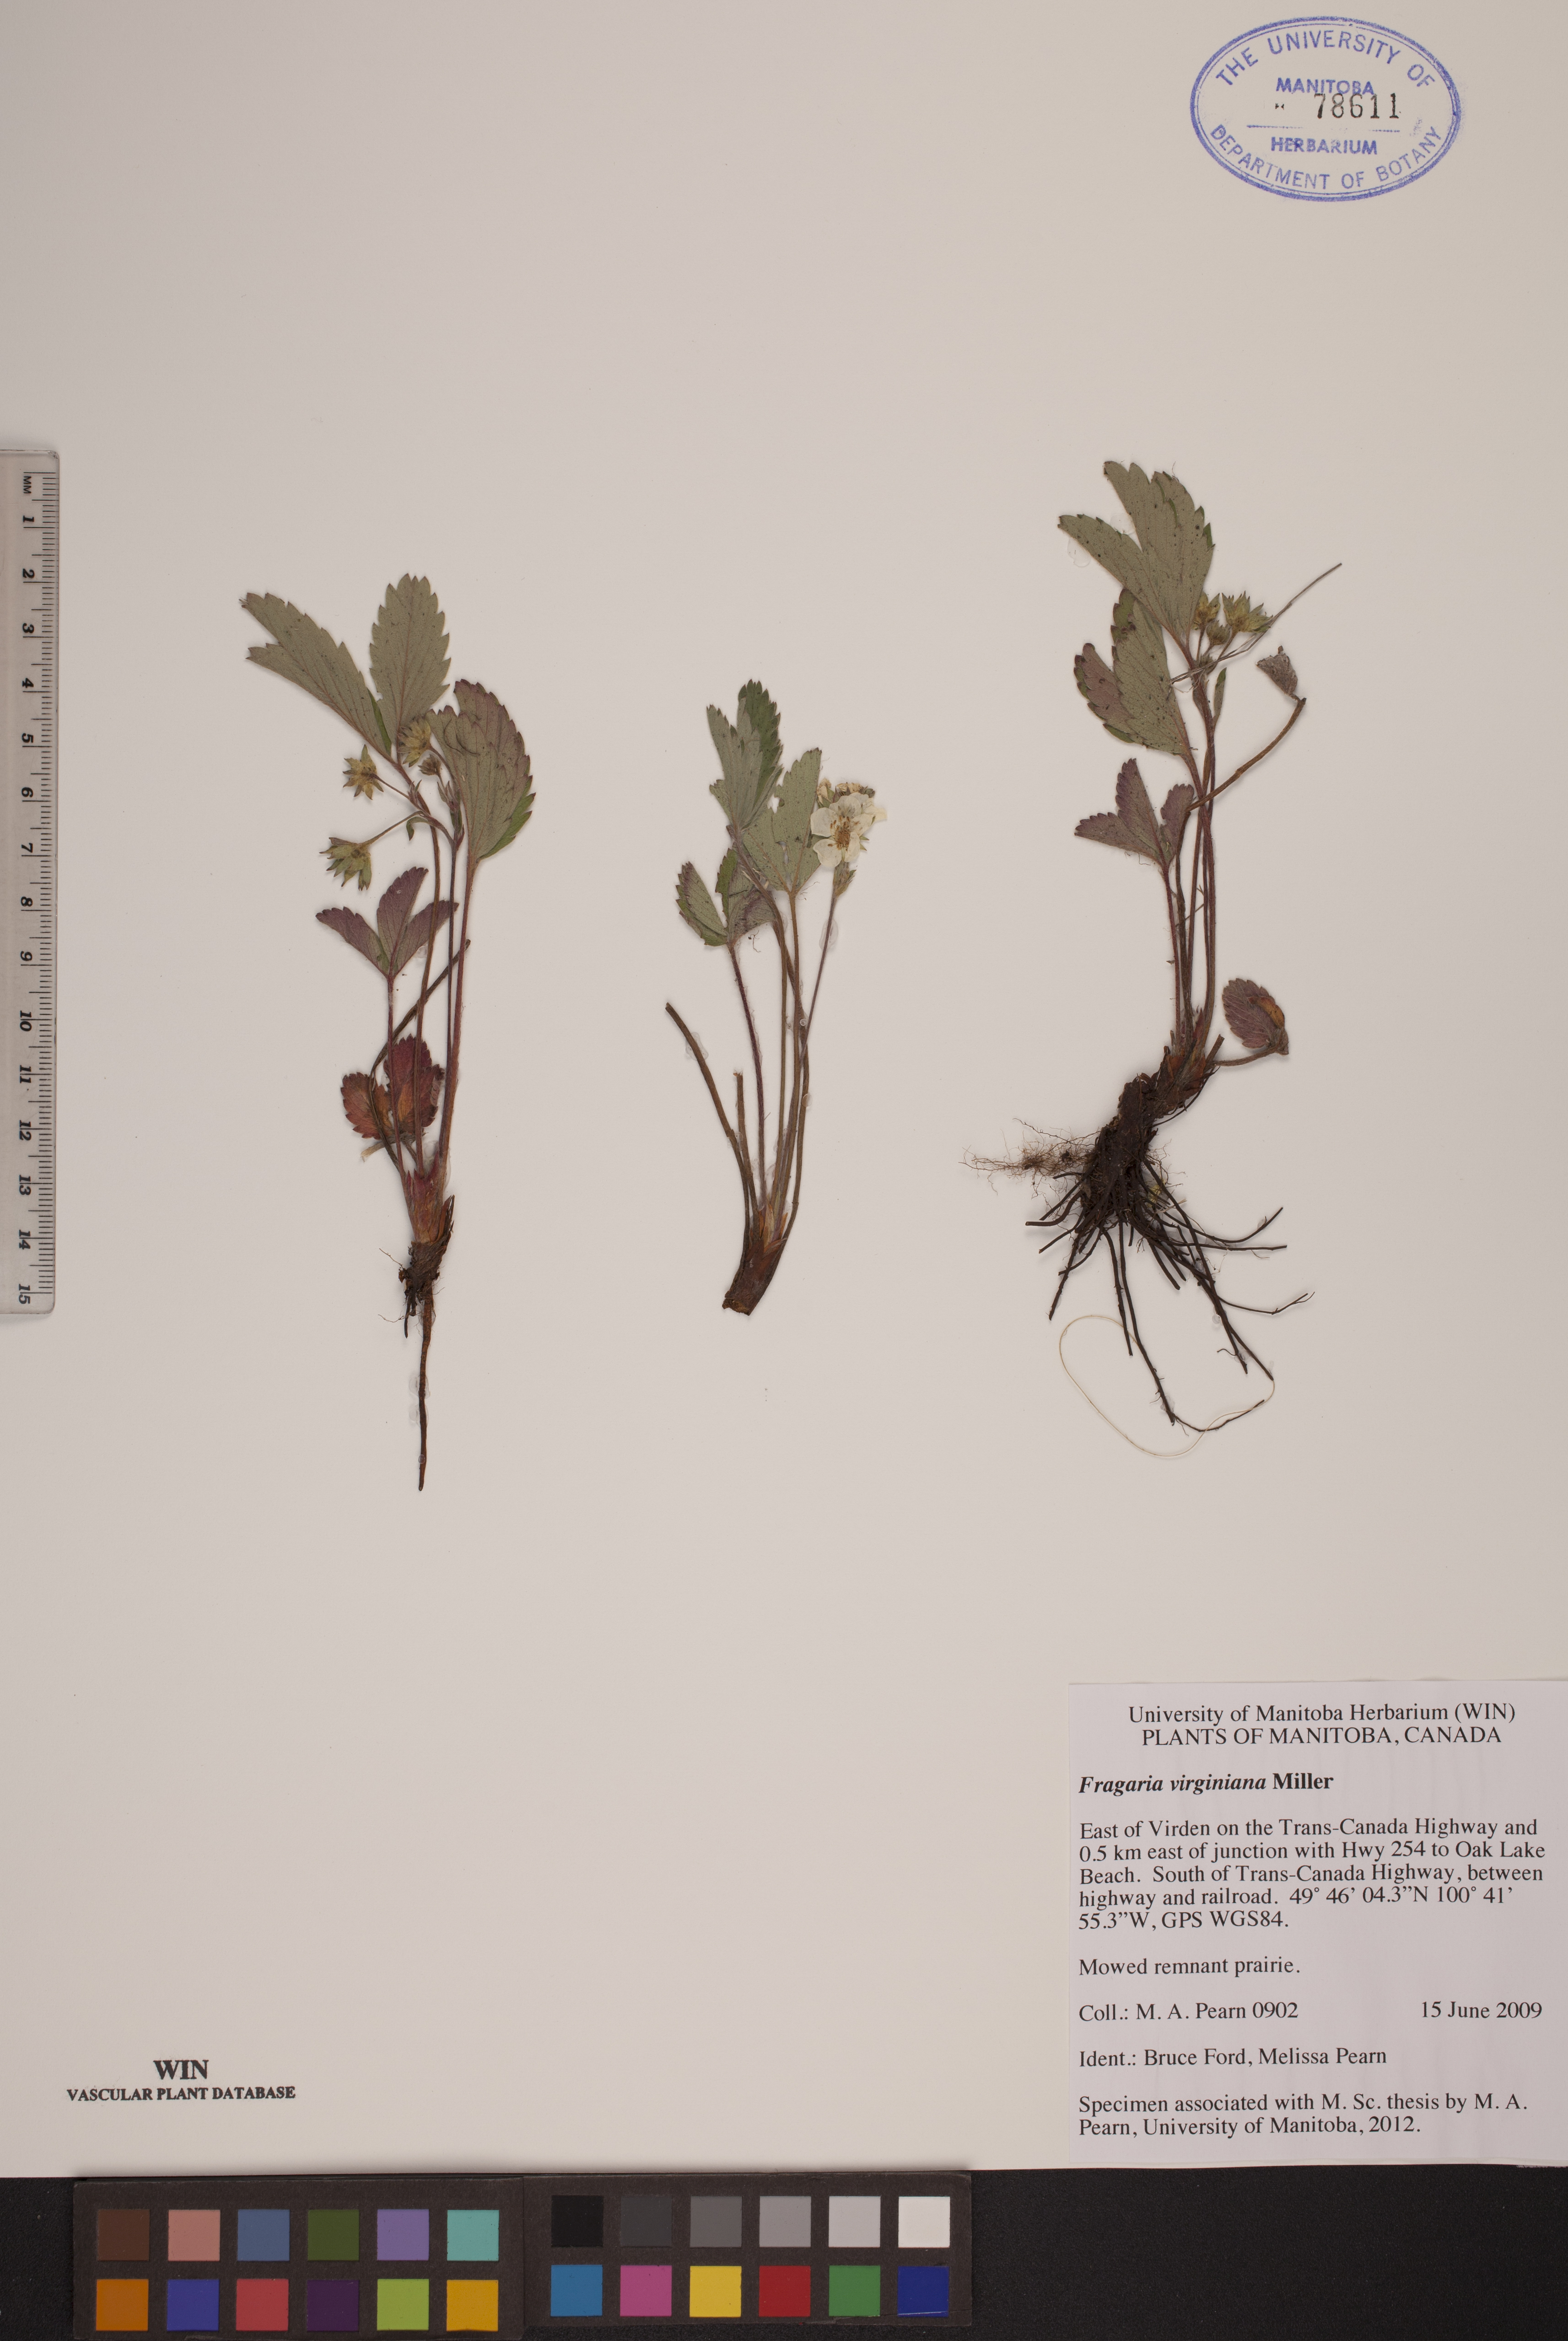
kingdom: Plantae
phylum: Tracheophyta
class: Magnoliopsida
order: Rosales
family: Rosaceae
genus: Fragaria
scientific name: Fragaria virginiana
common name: Thickleaved wild strawberry
